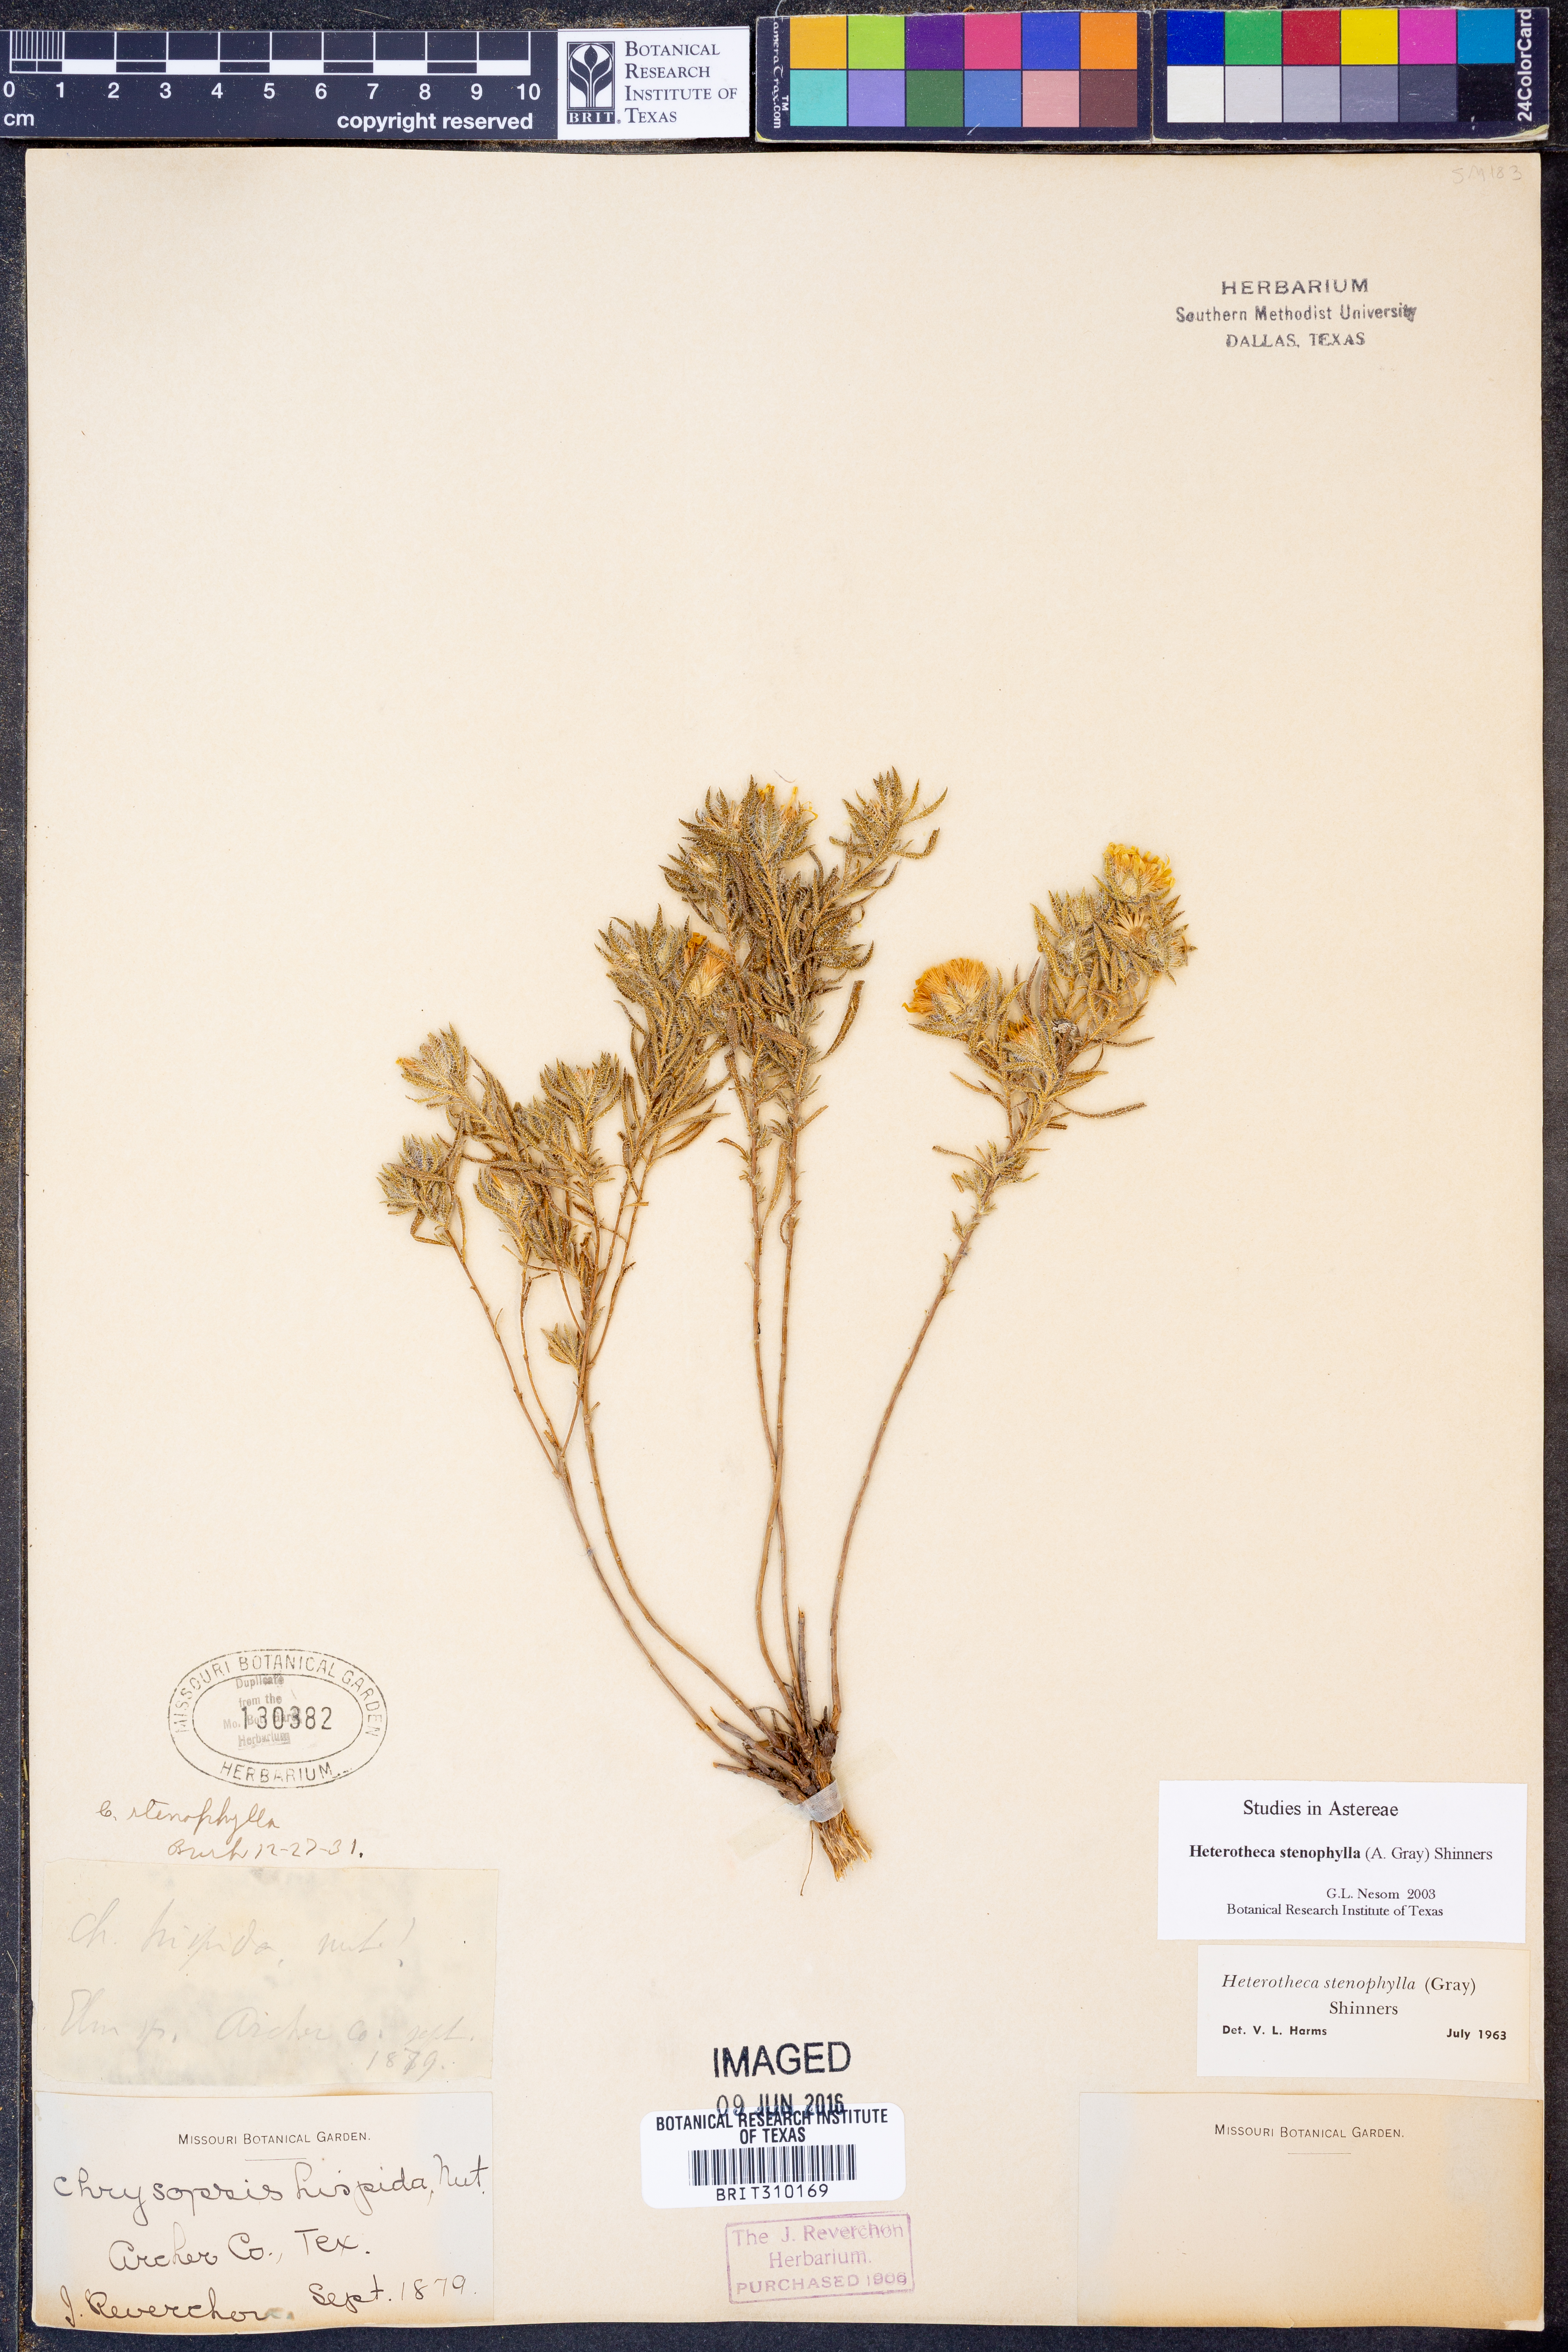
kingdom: Plantae
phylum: Tracheophyta
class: Magnoliopsida
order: Asterales
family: Asteraceae
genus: Heterotheca
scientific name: Heterotheca stenophylla
